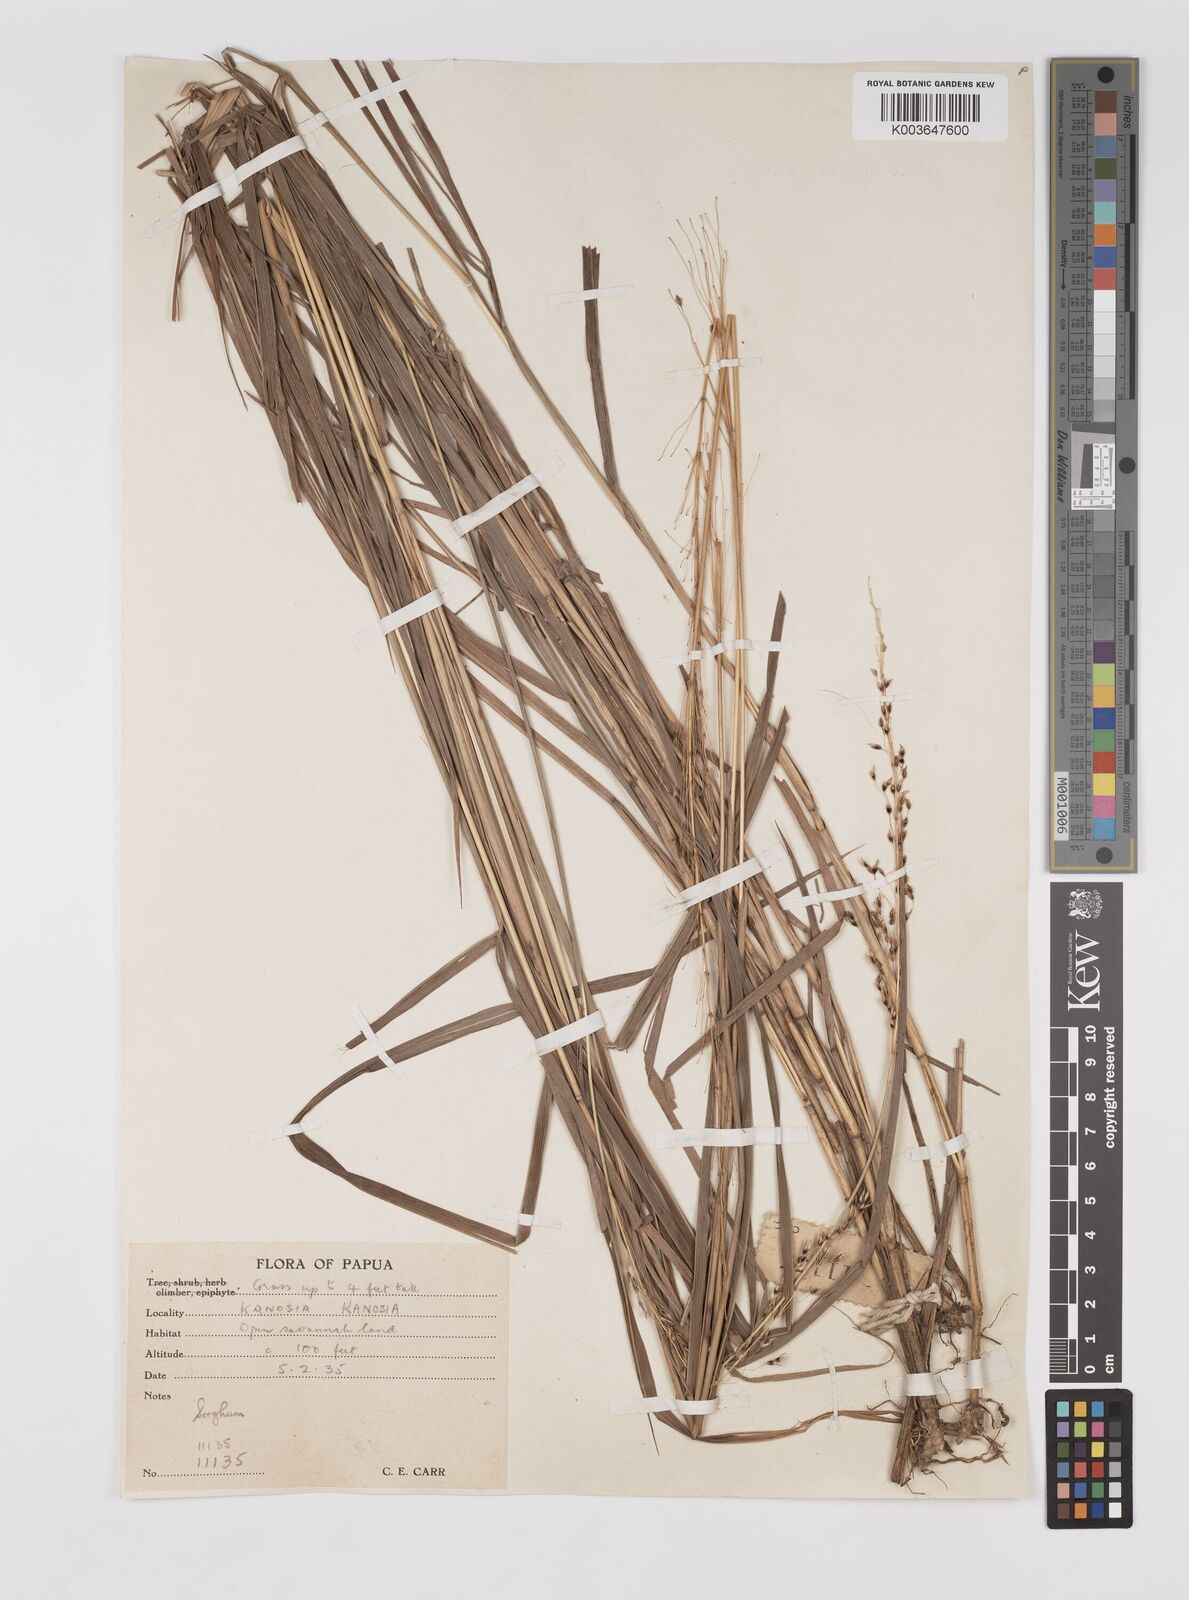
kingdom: Plantae
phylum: Tracheophyta
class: Liliopsida
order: Poales
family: Poaceae
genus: Sorghum
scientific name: Sorghum nitidum
